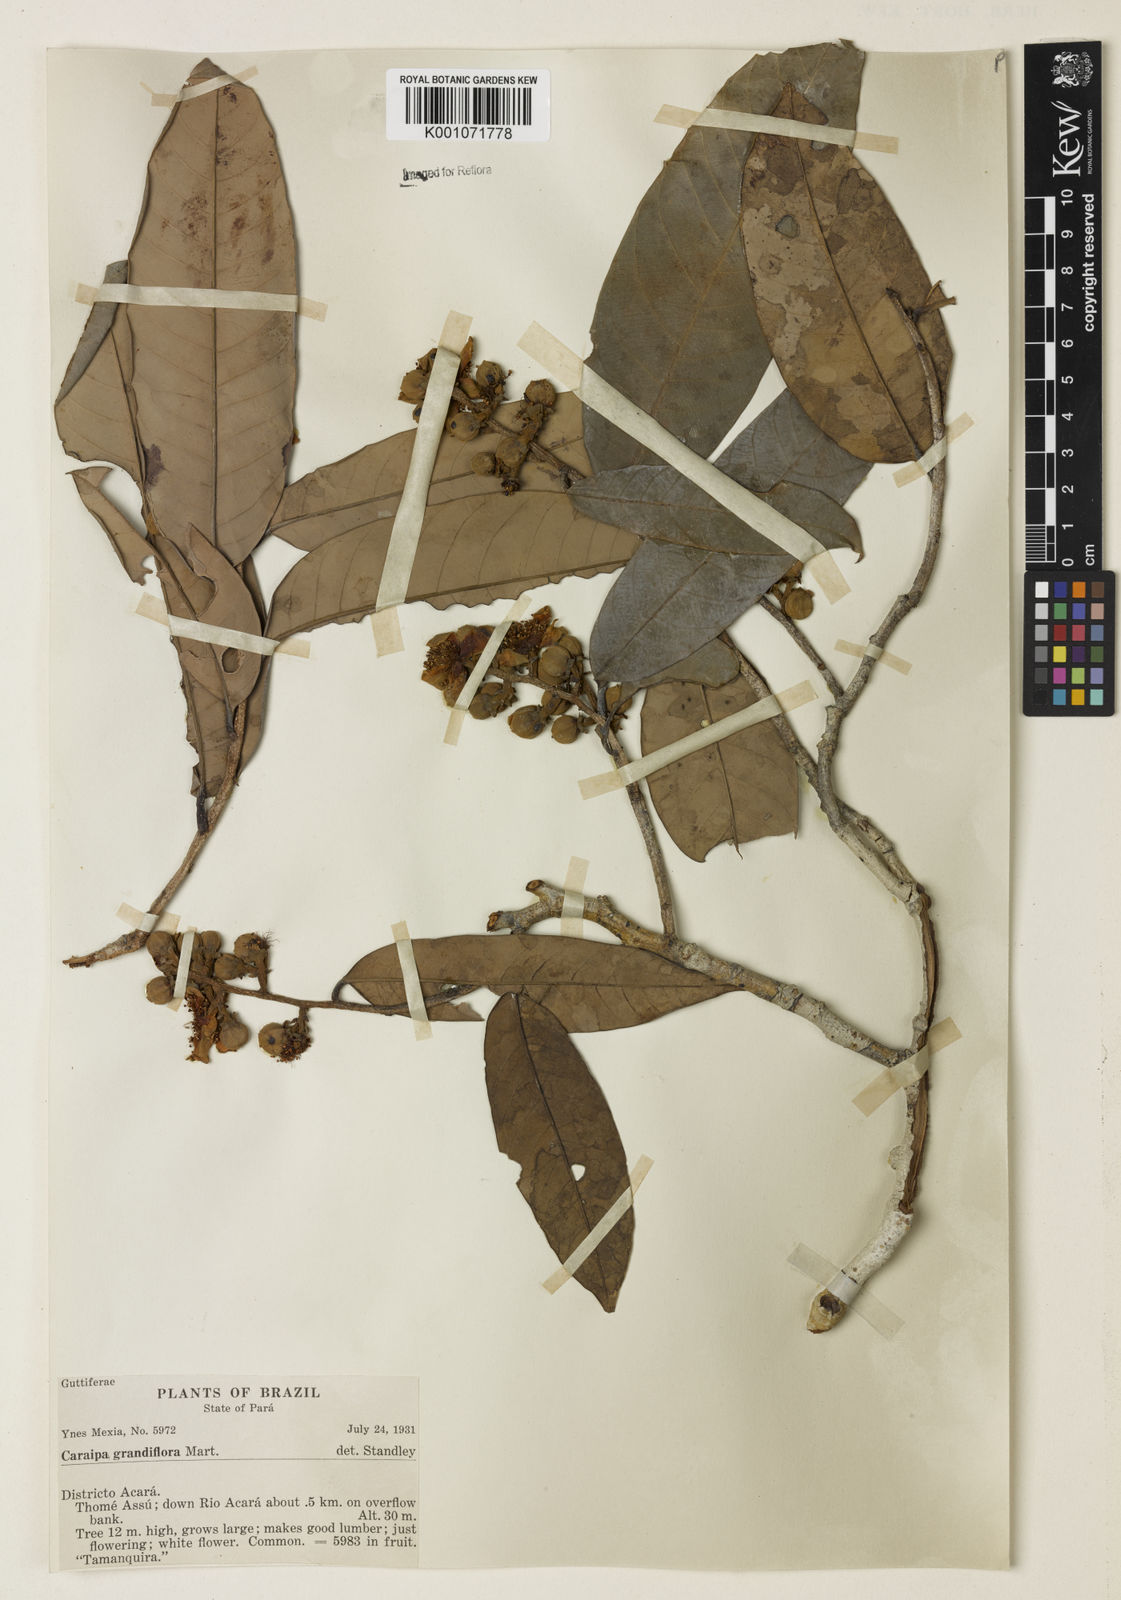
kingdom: Plantae
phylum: Tracheophyta
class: Magnoliopsida
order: Malpighiales
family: Calophyllaceae
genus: Caraipa
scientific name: Caraipa grandifolia
